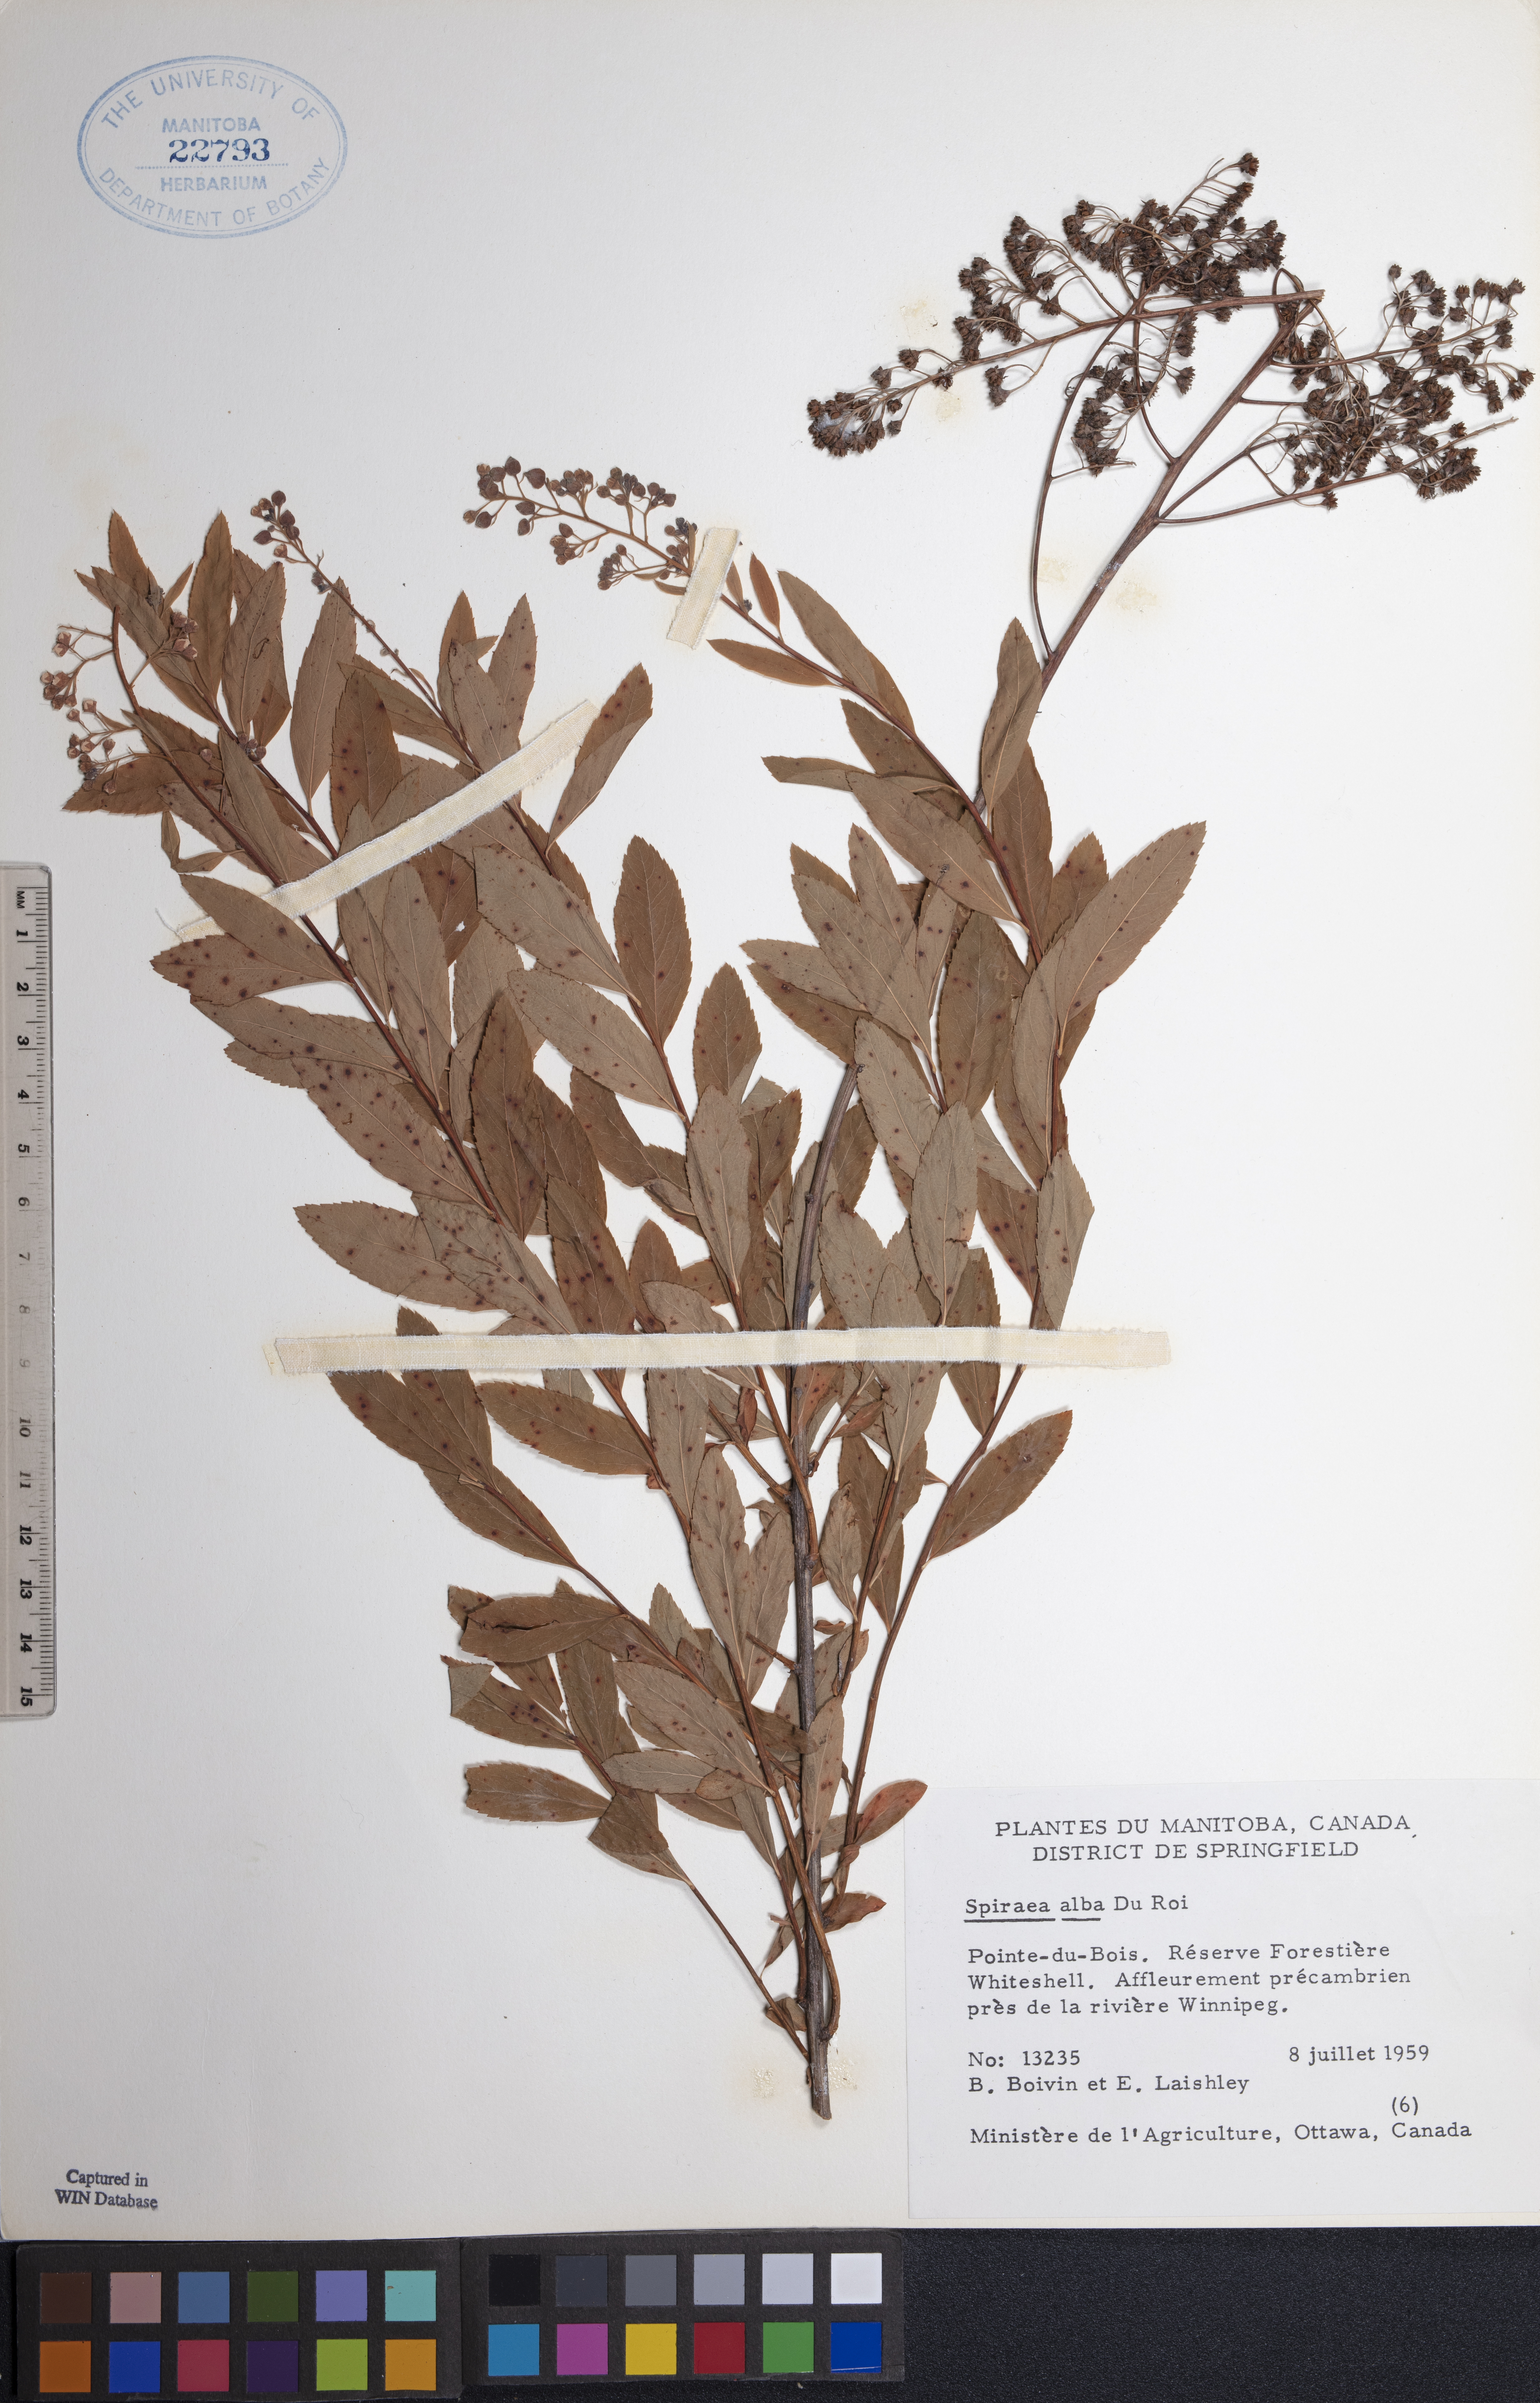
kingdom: Plantae
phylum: Tracheophyta
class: Magnoliopsida
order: Rosales
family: Rosaceae
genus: Spiraea
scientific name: Spiraea alba
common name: Pale bridewort
